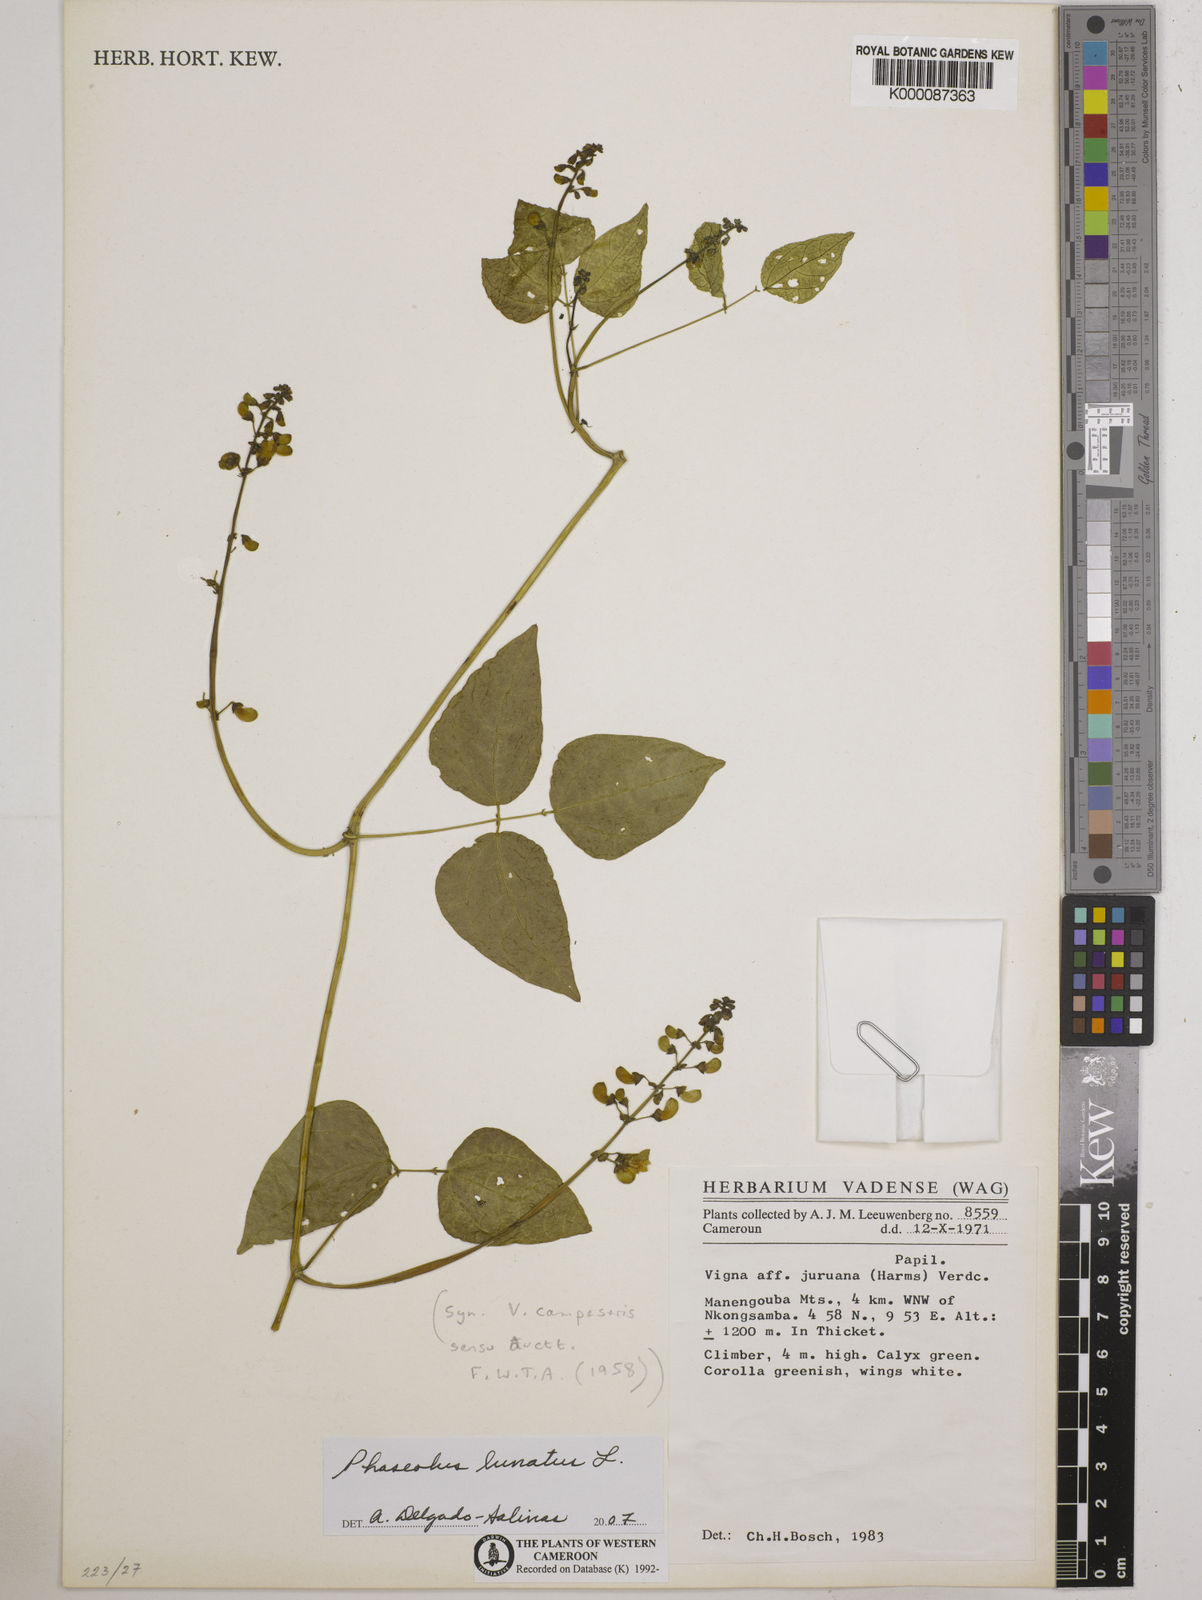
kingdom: Plantae
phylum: Tracheophyta
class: Magnoliopsida
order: Fabales
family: Fabaceae
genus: Vigna
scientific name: Vigna
